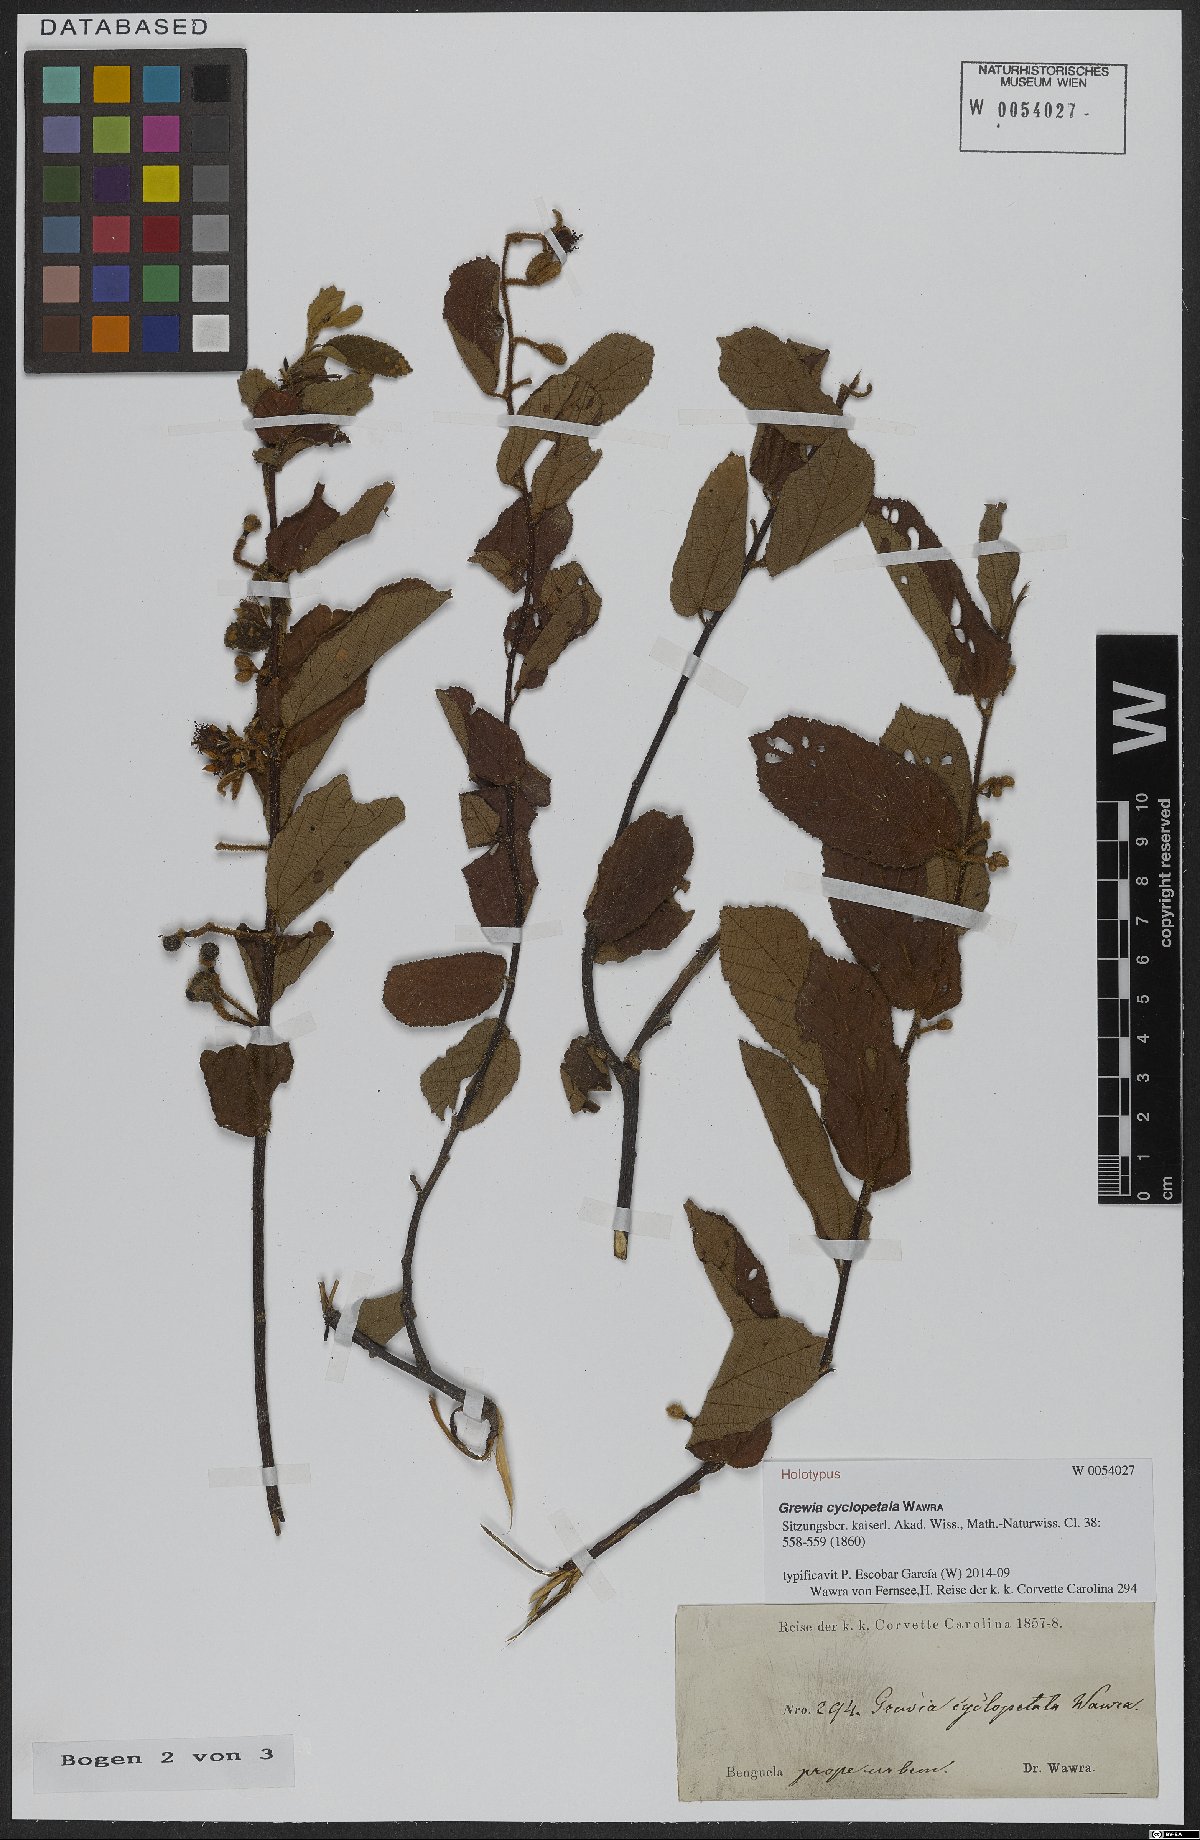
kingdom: Plantae
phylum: Tracheophyta
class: Magnoliopsida
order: Malvales
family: Malvaceae
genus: Grewia
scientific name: Grewia cyclopetala
